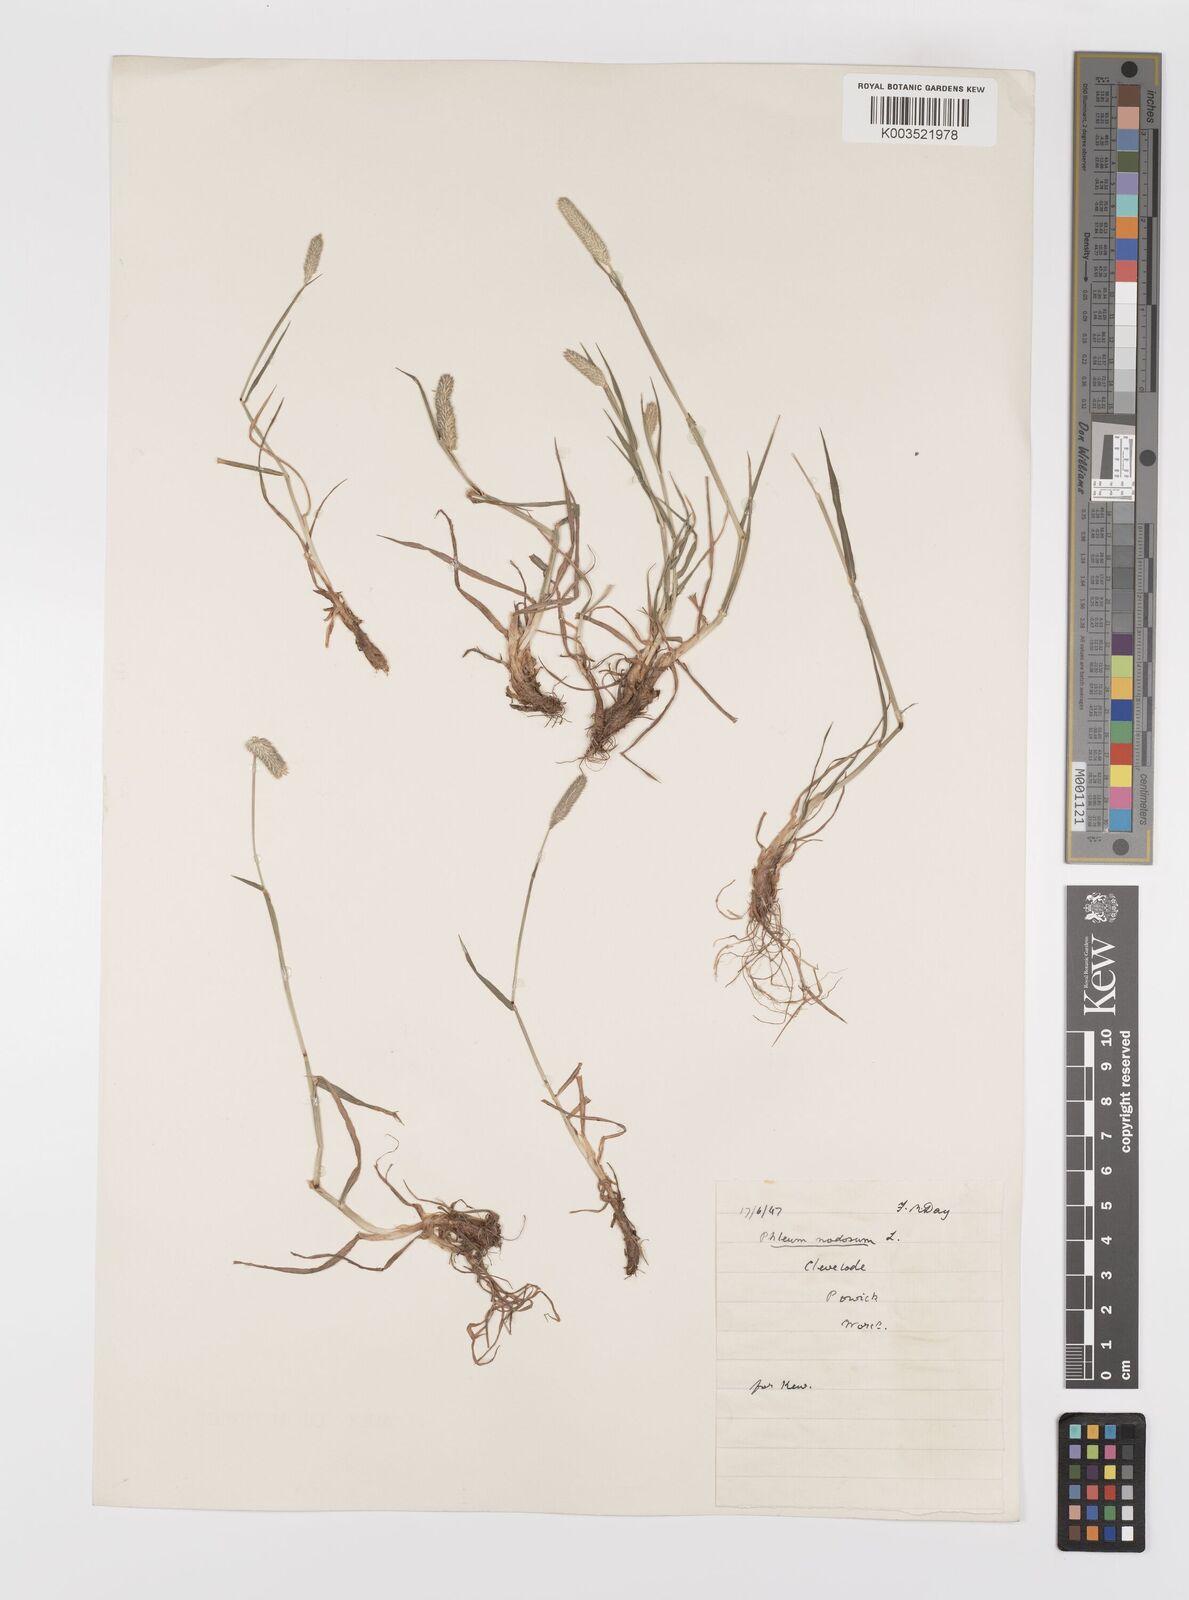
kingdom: Plantae
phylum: Tracheophyta
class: Liliopsida
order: Poales
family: Poaceae
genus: Phleum
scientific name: Phleum bertolonii
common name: Smaller cat's-tail
